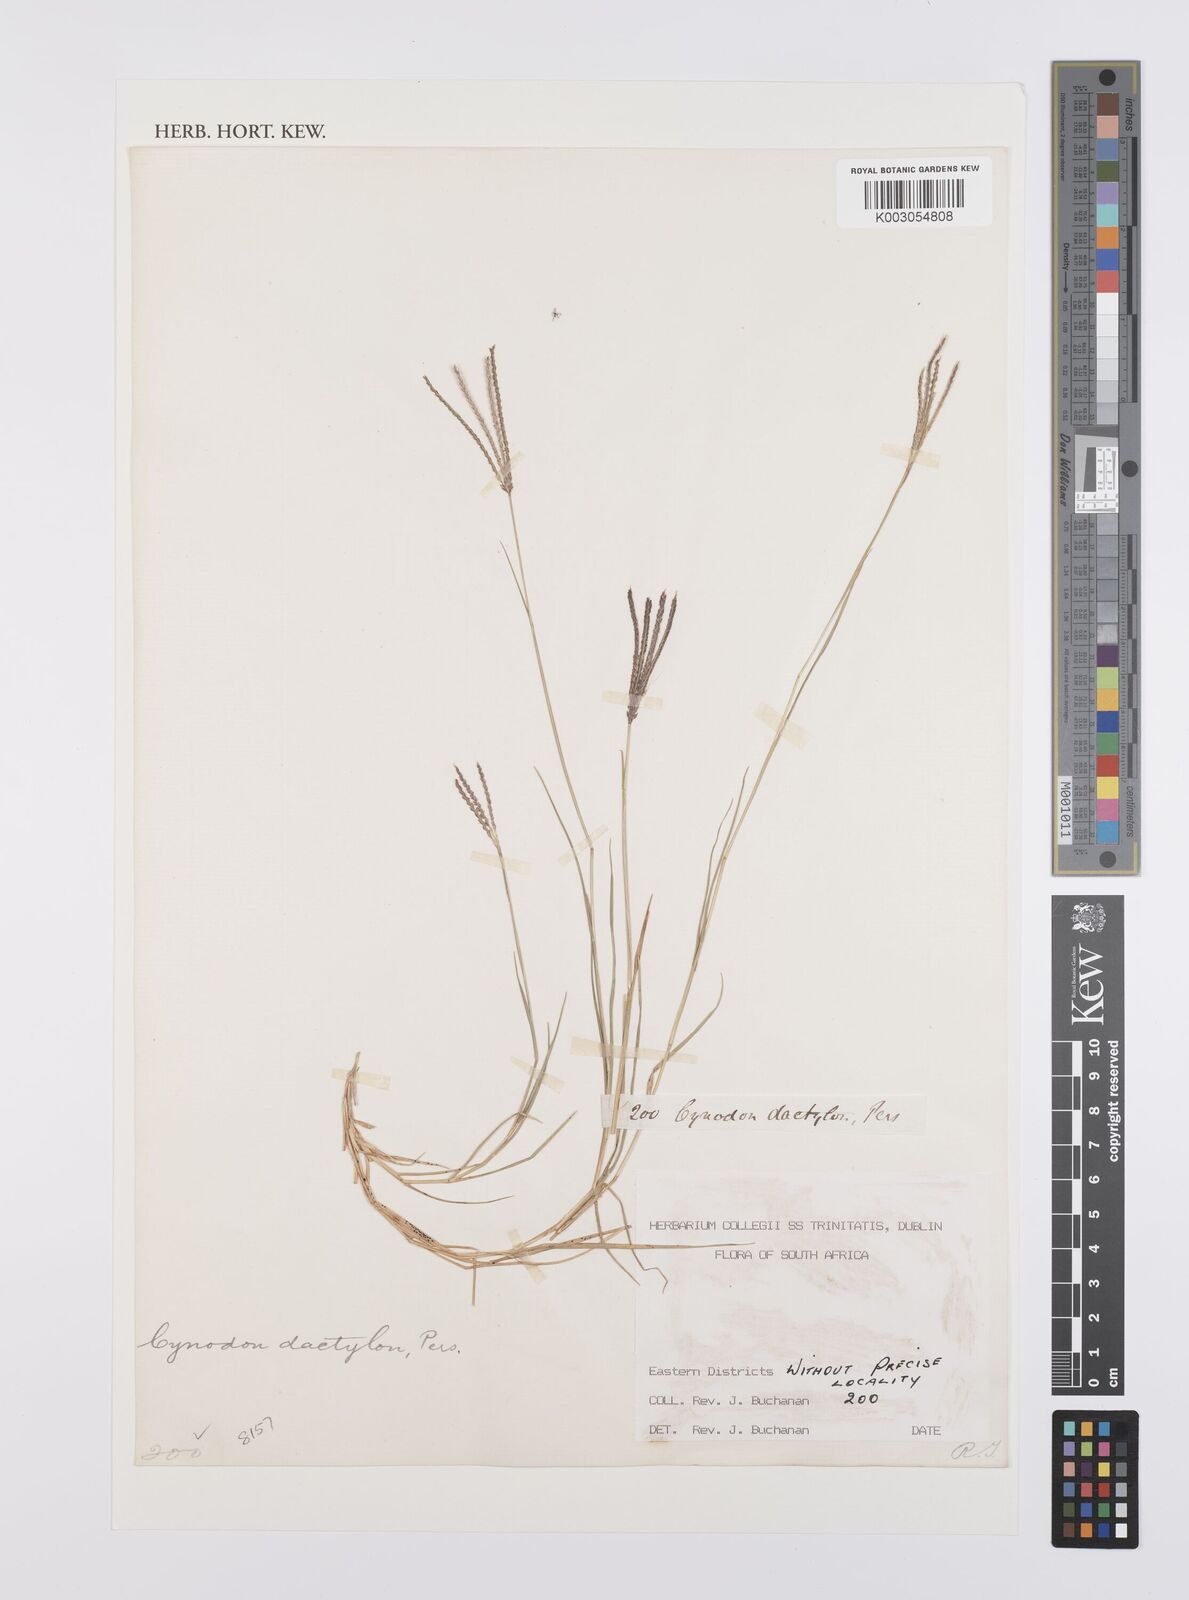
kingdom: Plantae
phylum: Tracheophyta
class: Liliopsida
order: Poales
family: Poaceae
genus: Cynodon
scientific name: Cynodon dactylon
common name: Bermuda grass
